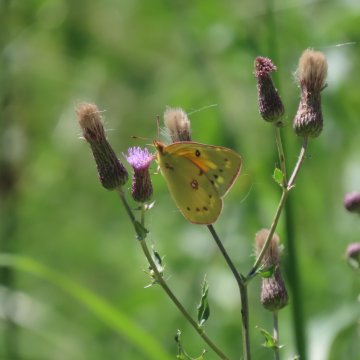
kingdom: Animalia
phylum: Arthropoda
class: Insecta
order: Lepidoptera
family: Pieridae
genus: Colias
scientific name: Colias eurytheme
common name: Orange Sulphur
